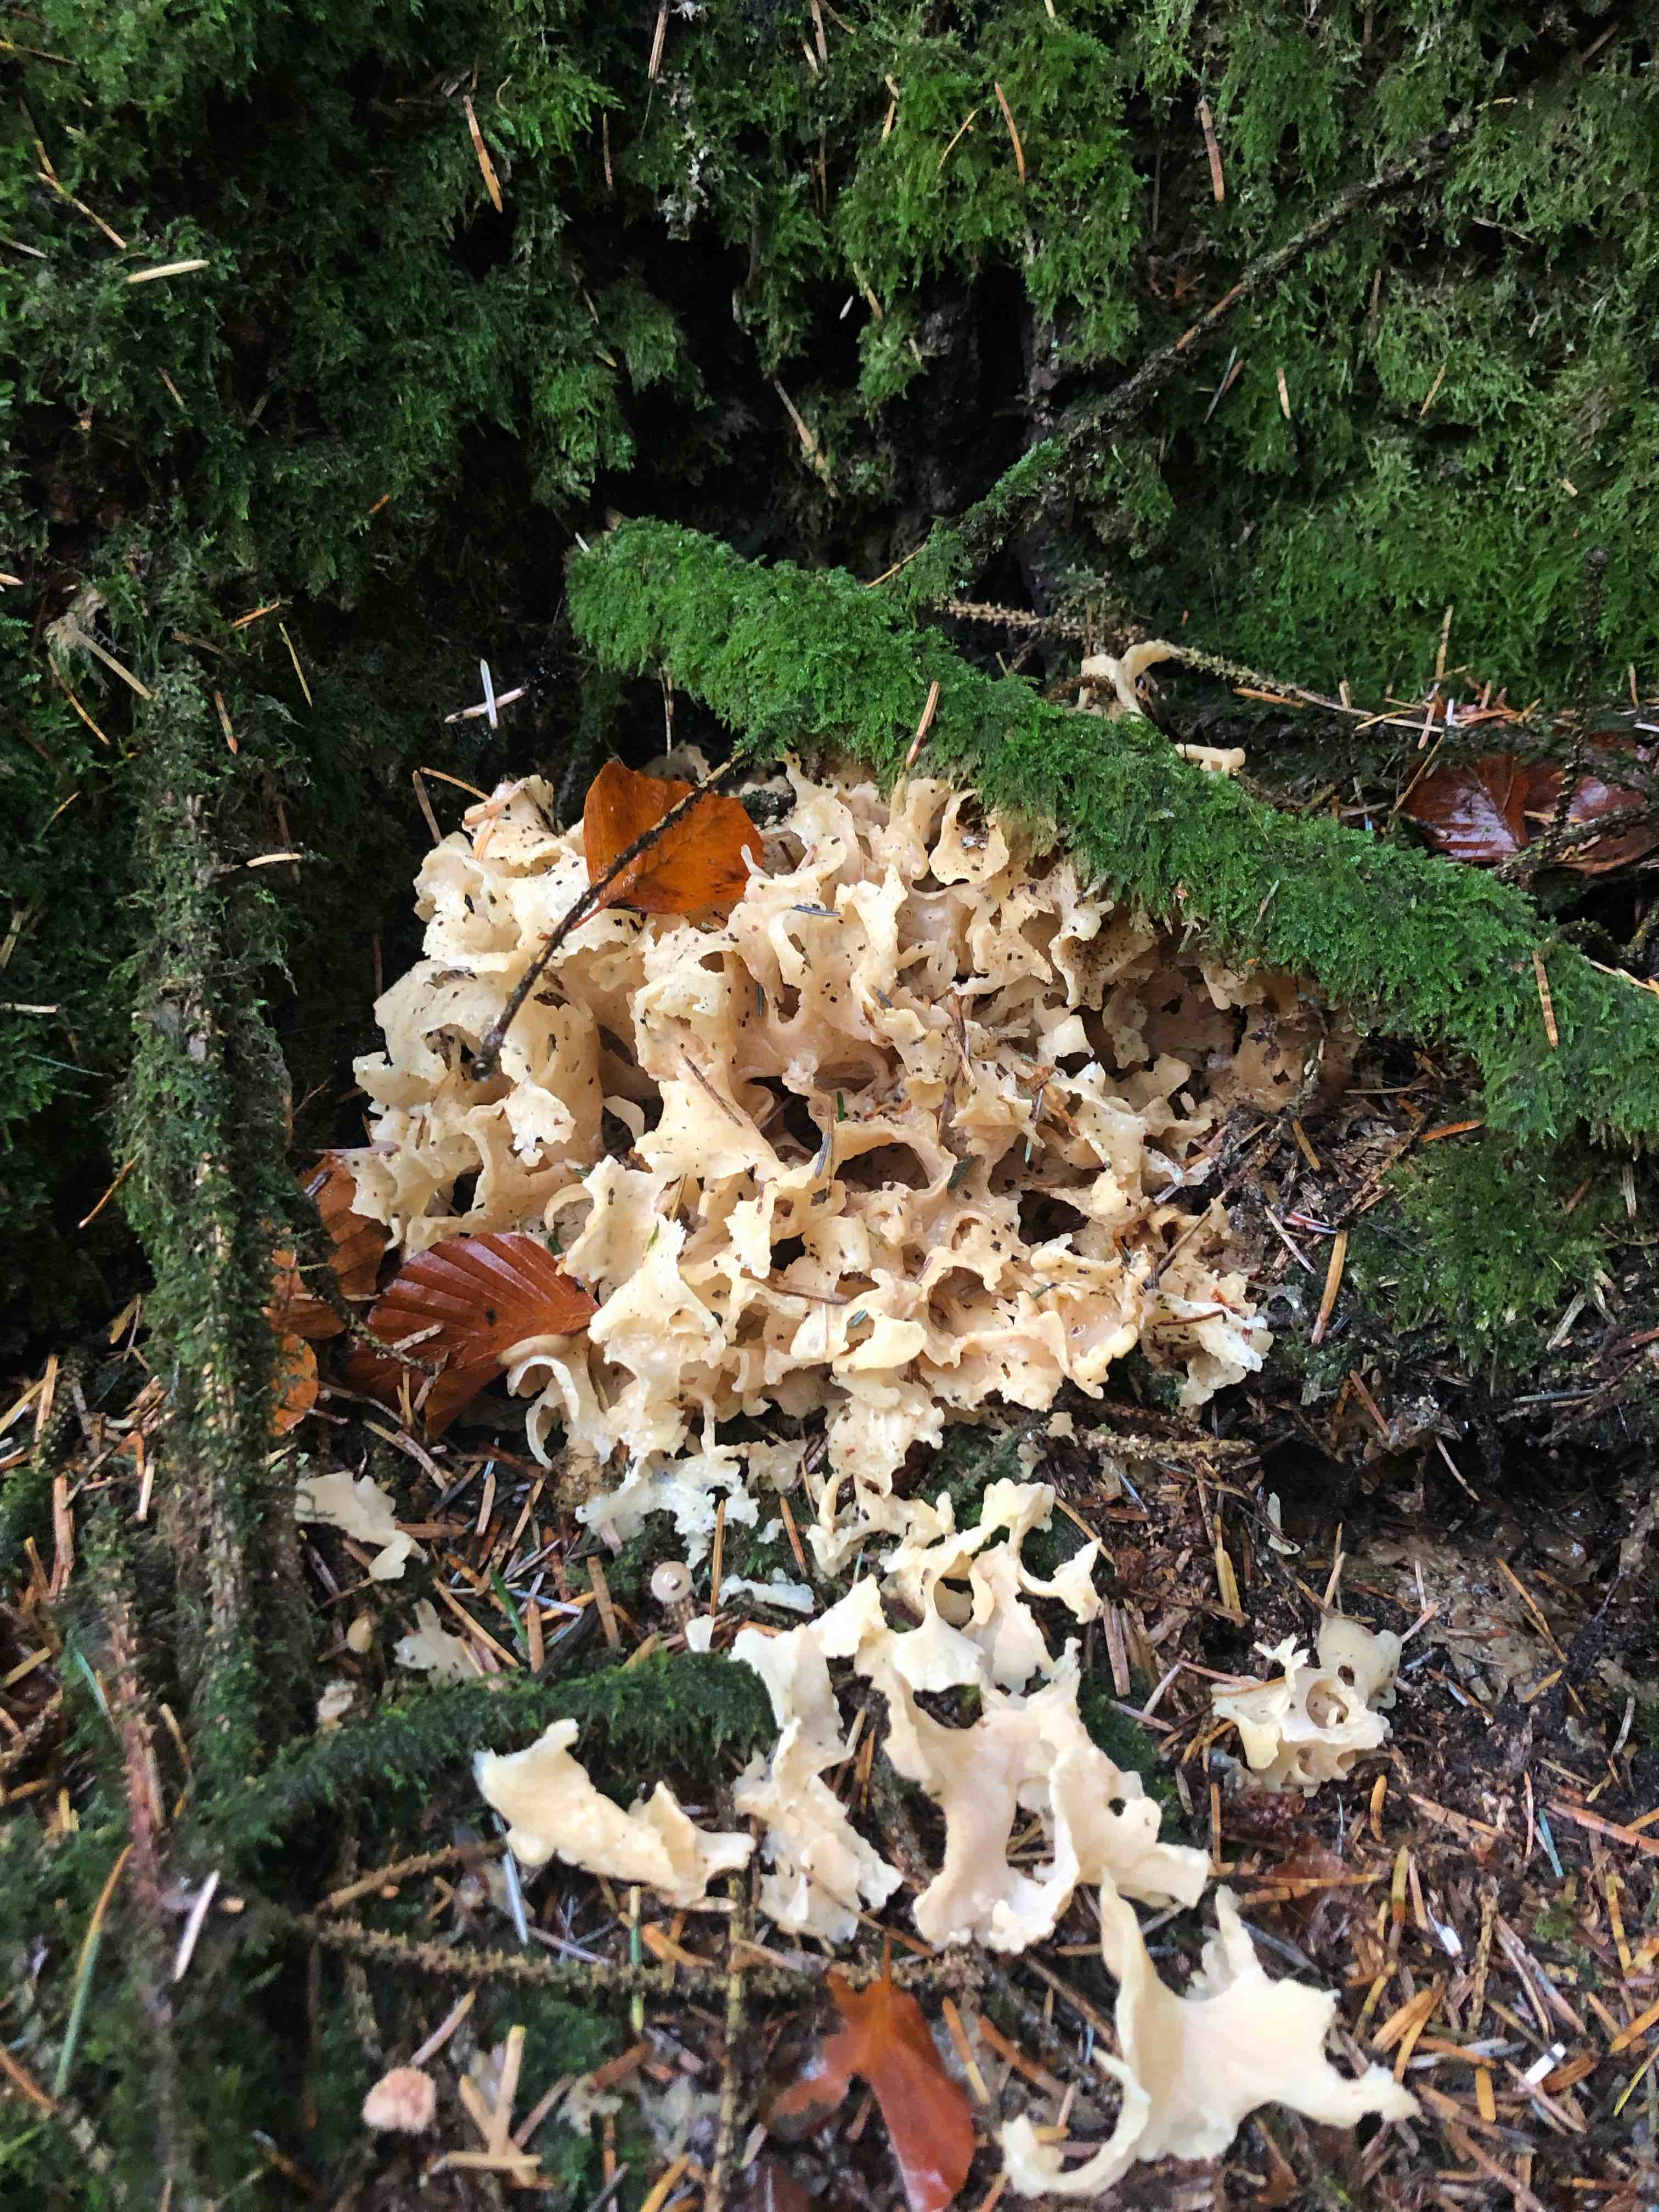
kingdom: Fungi
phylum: Basidiomycota
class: Agaricomycetes
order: Polyporales
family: Sparassidaceae
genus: Sparassis
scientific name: Sparassis crispa
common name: kruset blomkålssvamp
